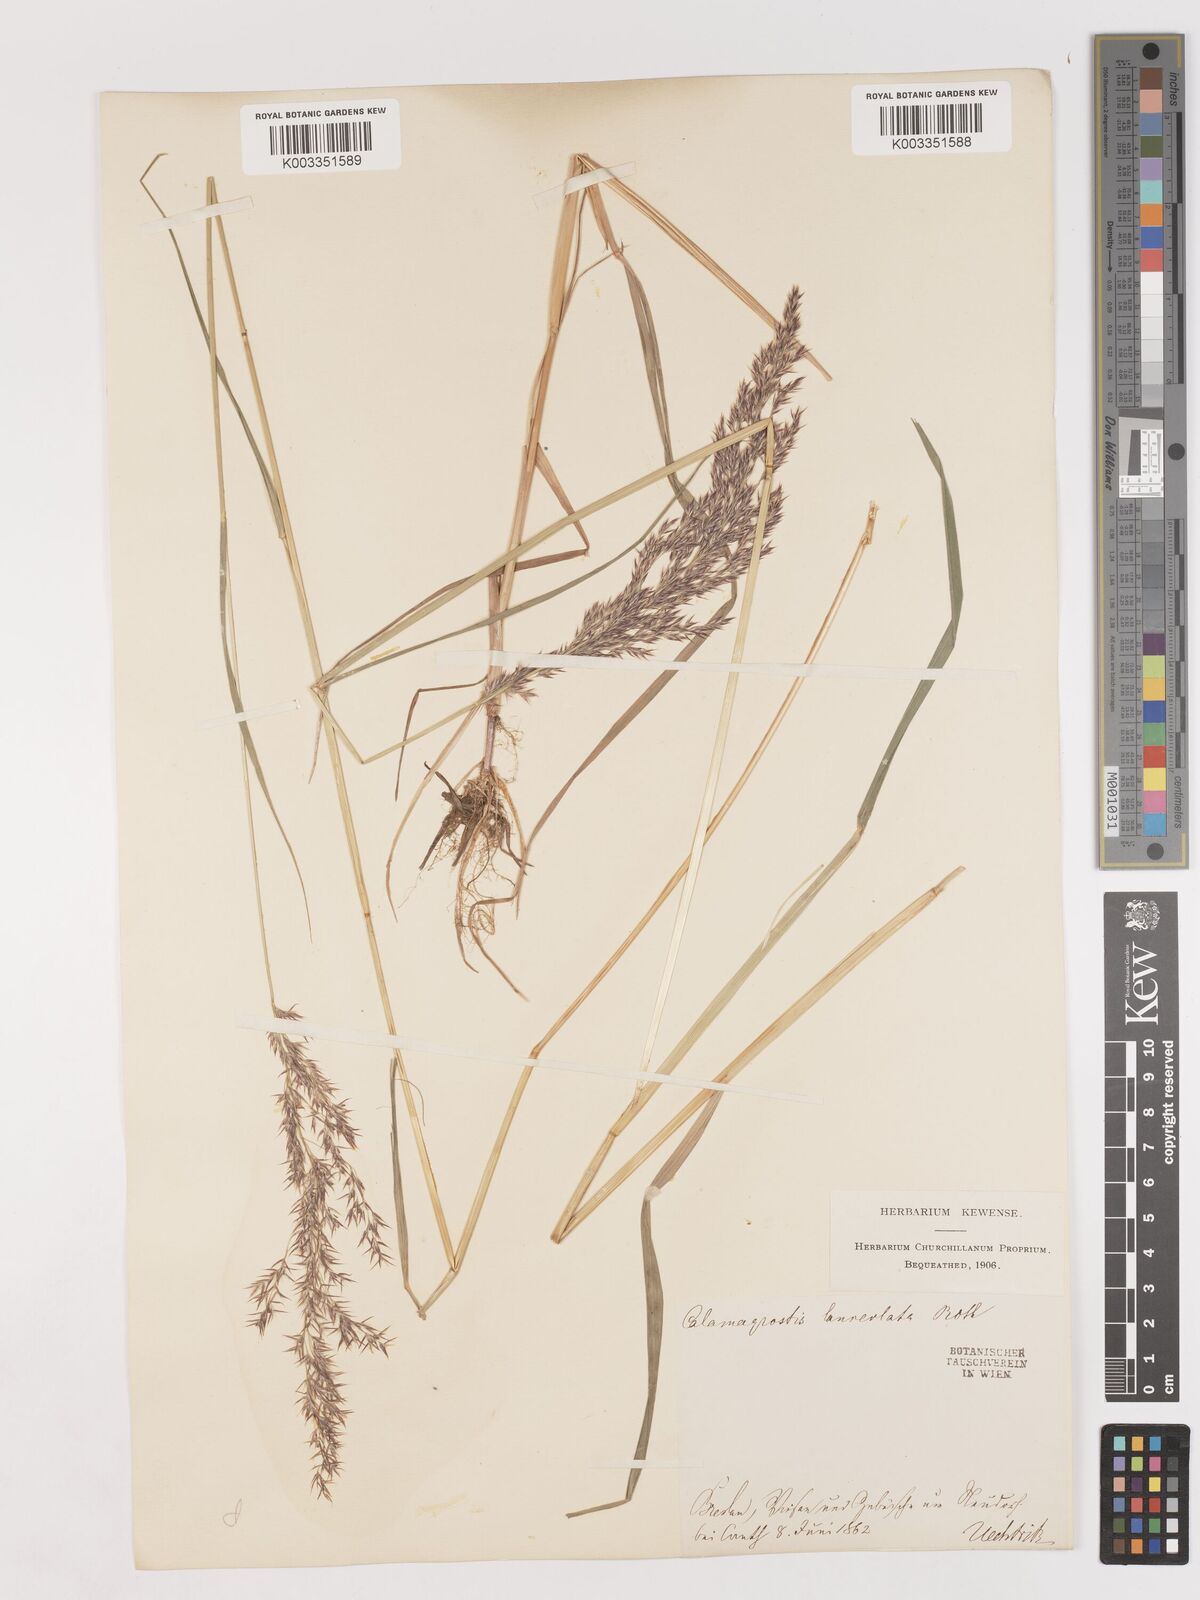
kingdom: Plantae
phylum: Tracheophyta
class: Liliopsida
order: Poales
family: Poaceae
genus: Calamagrostis
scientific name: Calamagrostis canescens
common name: Purple small-reed
